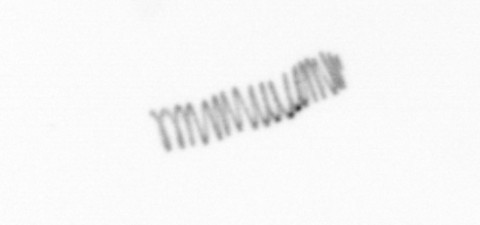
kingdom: Chromista
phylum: Ochrophyta
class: Bacillariophyceae
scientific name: Bacillariophyceae
